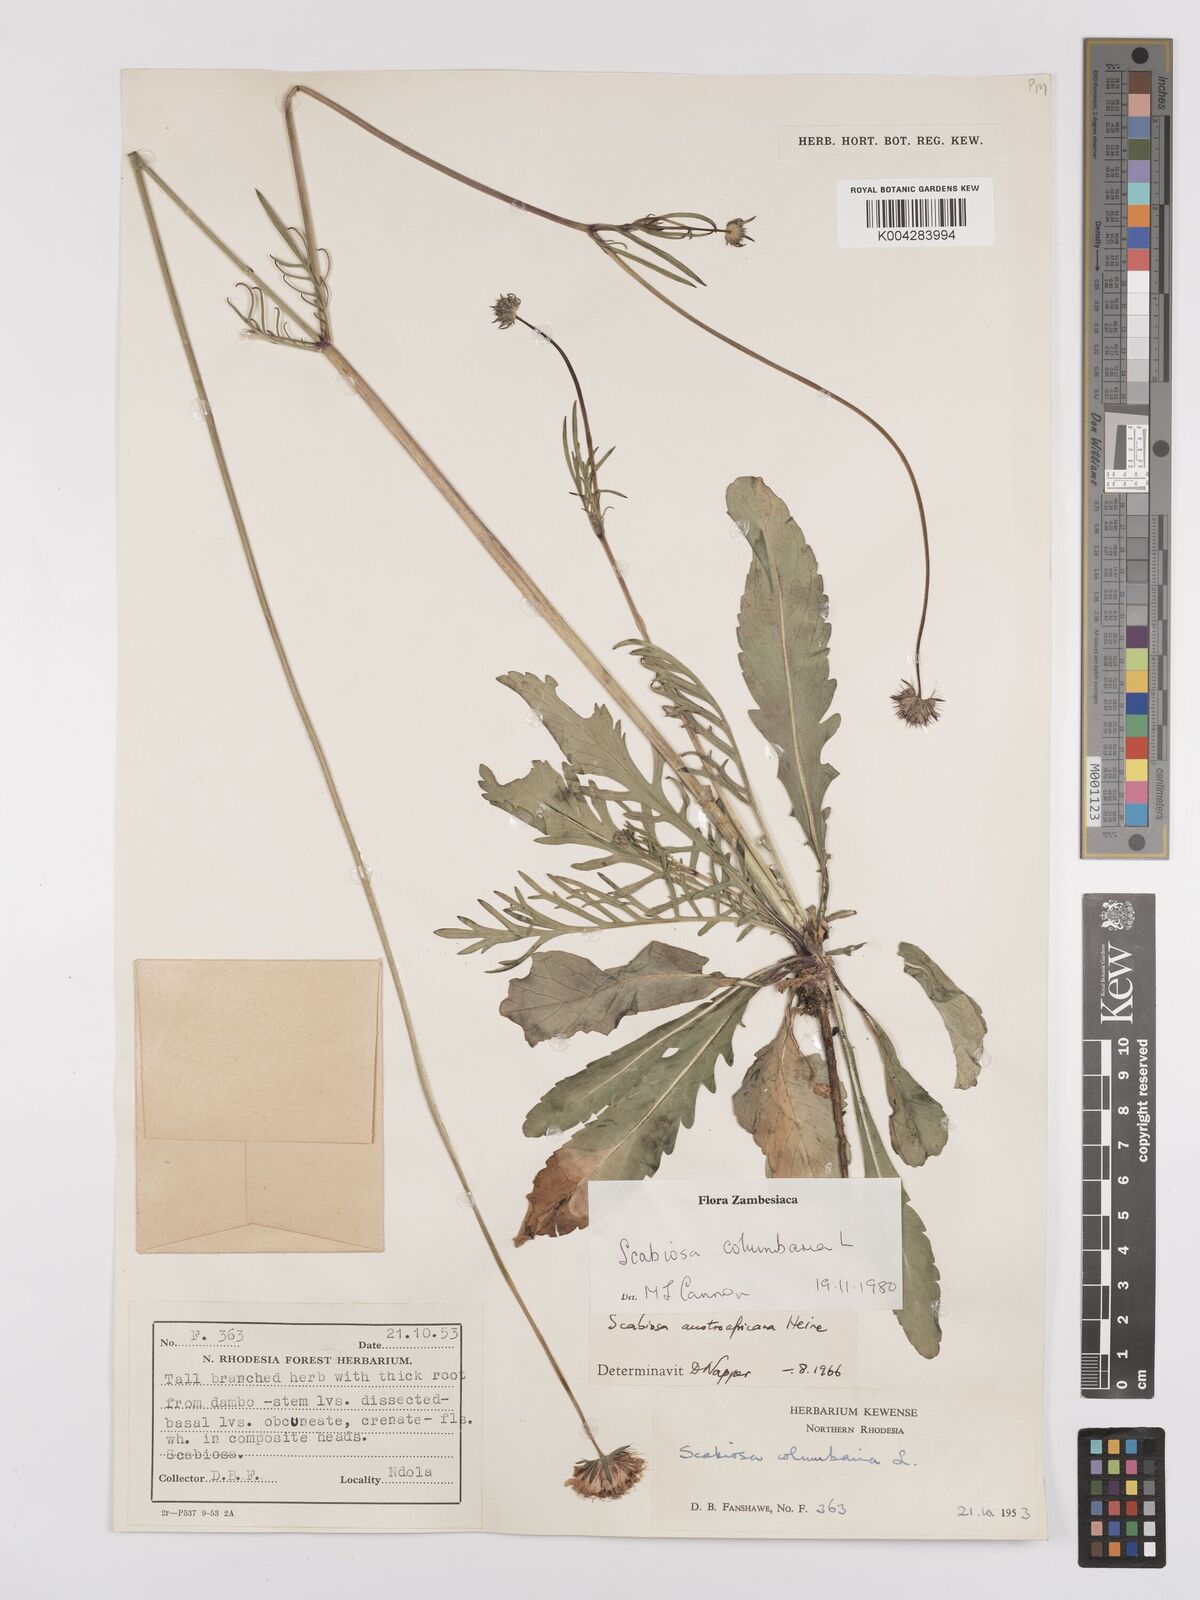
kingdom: Plantae
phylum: Tracheophyta
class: Magnoliopsida
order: Dipsacales
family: Caprifoliaceae
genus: Scabiosa
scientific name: Scabiosa austroafricana
